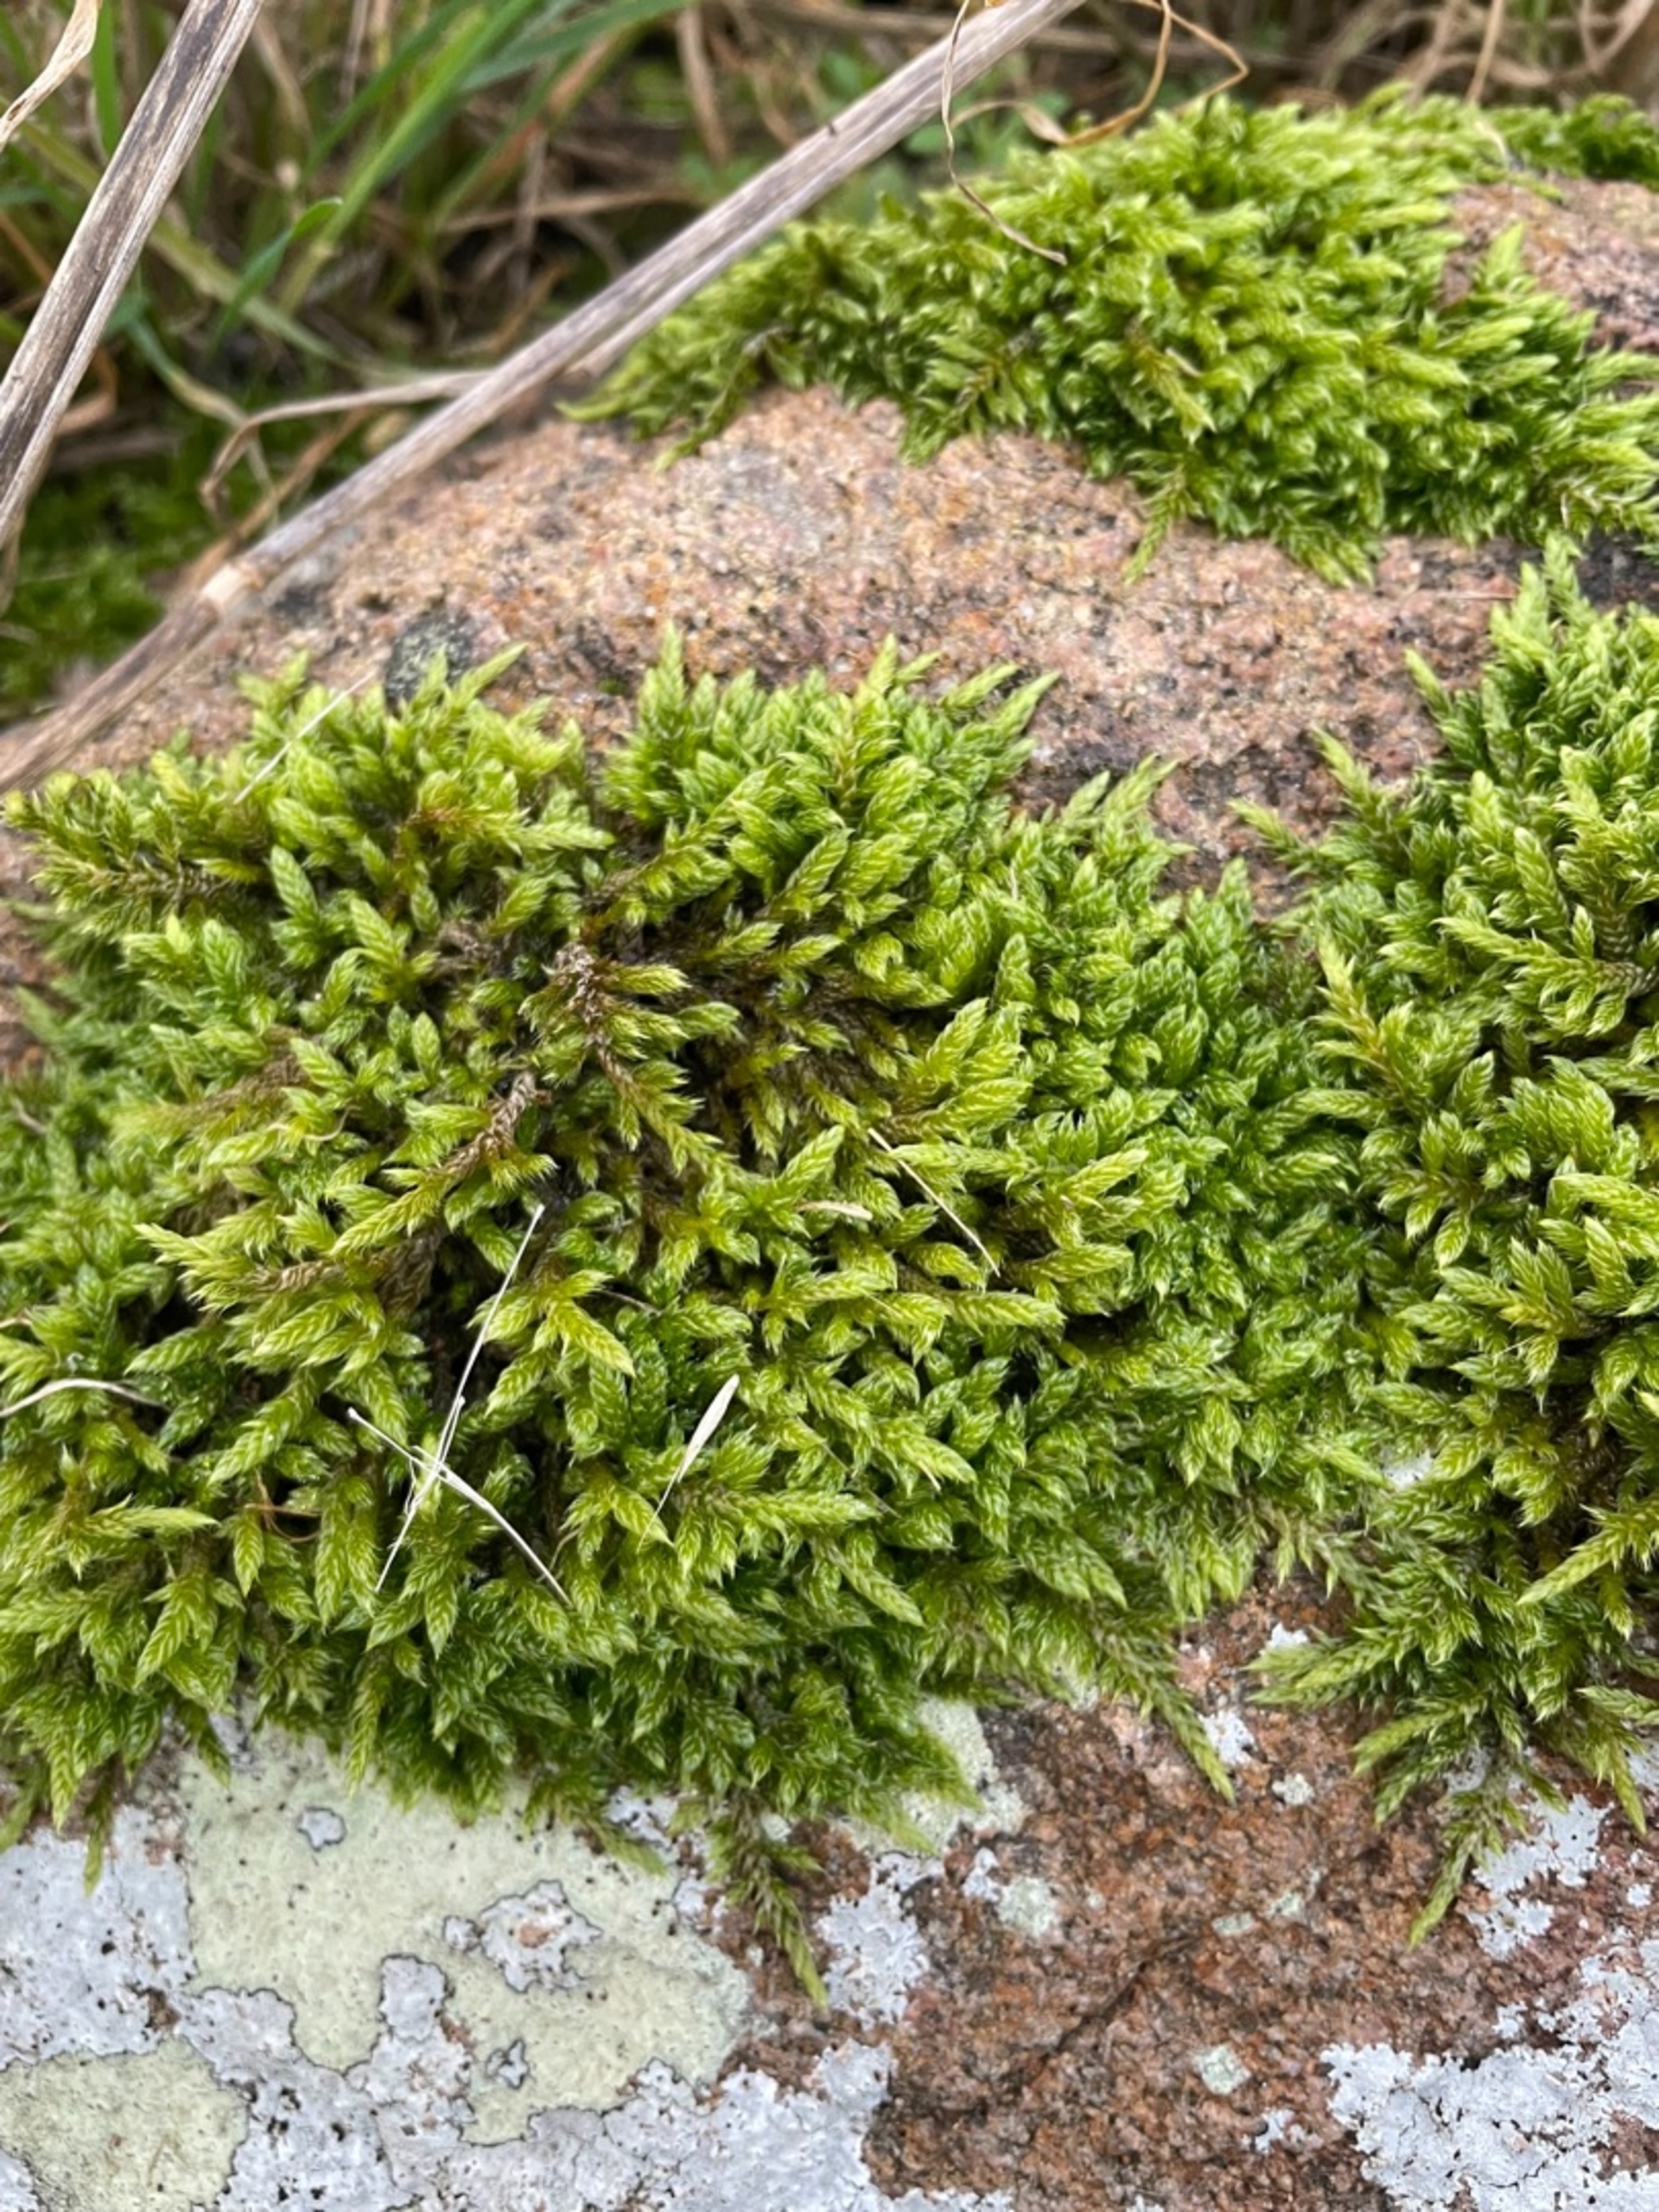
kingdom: Plantae
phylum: Bryophyta
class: Bryopsida
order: Hypnales
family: Hypnaceae
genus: Hypnum
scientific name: Hypnum cupressiforme
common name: Almindelig cypresmos
